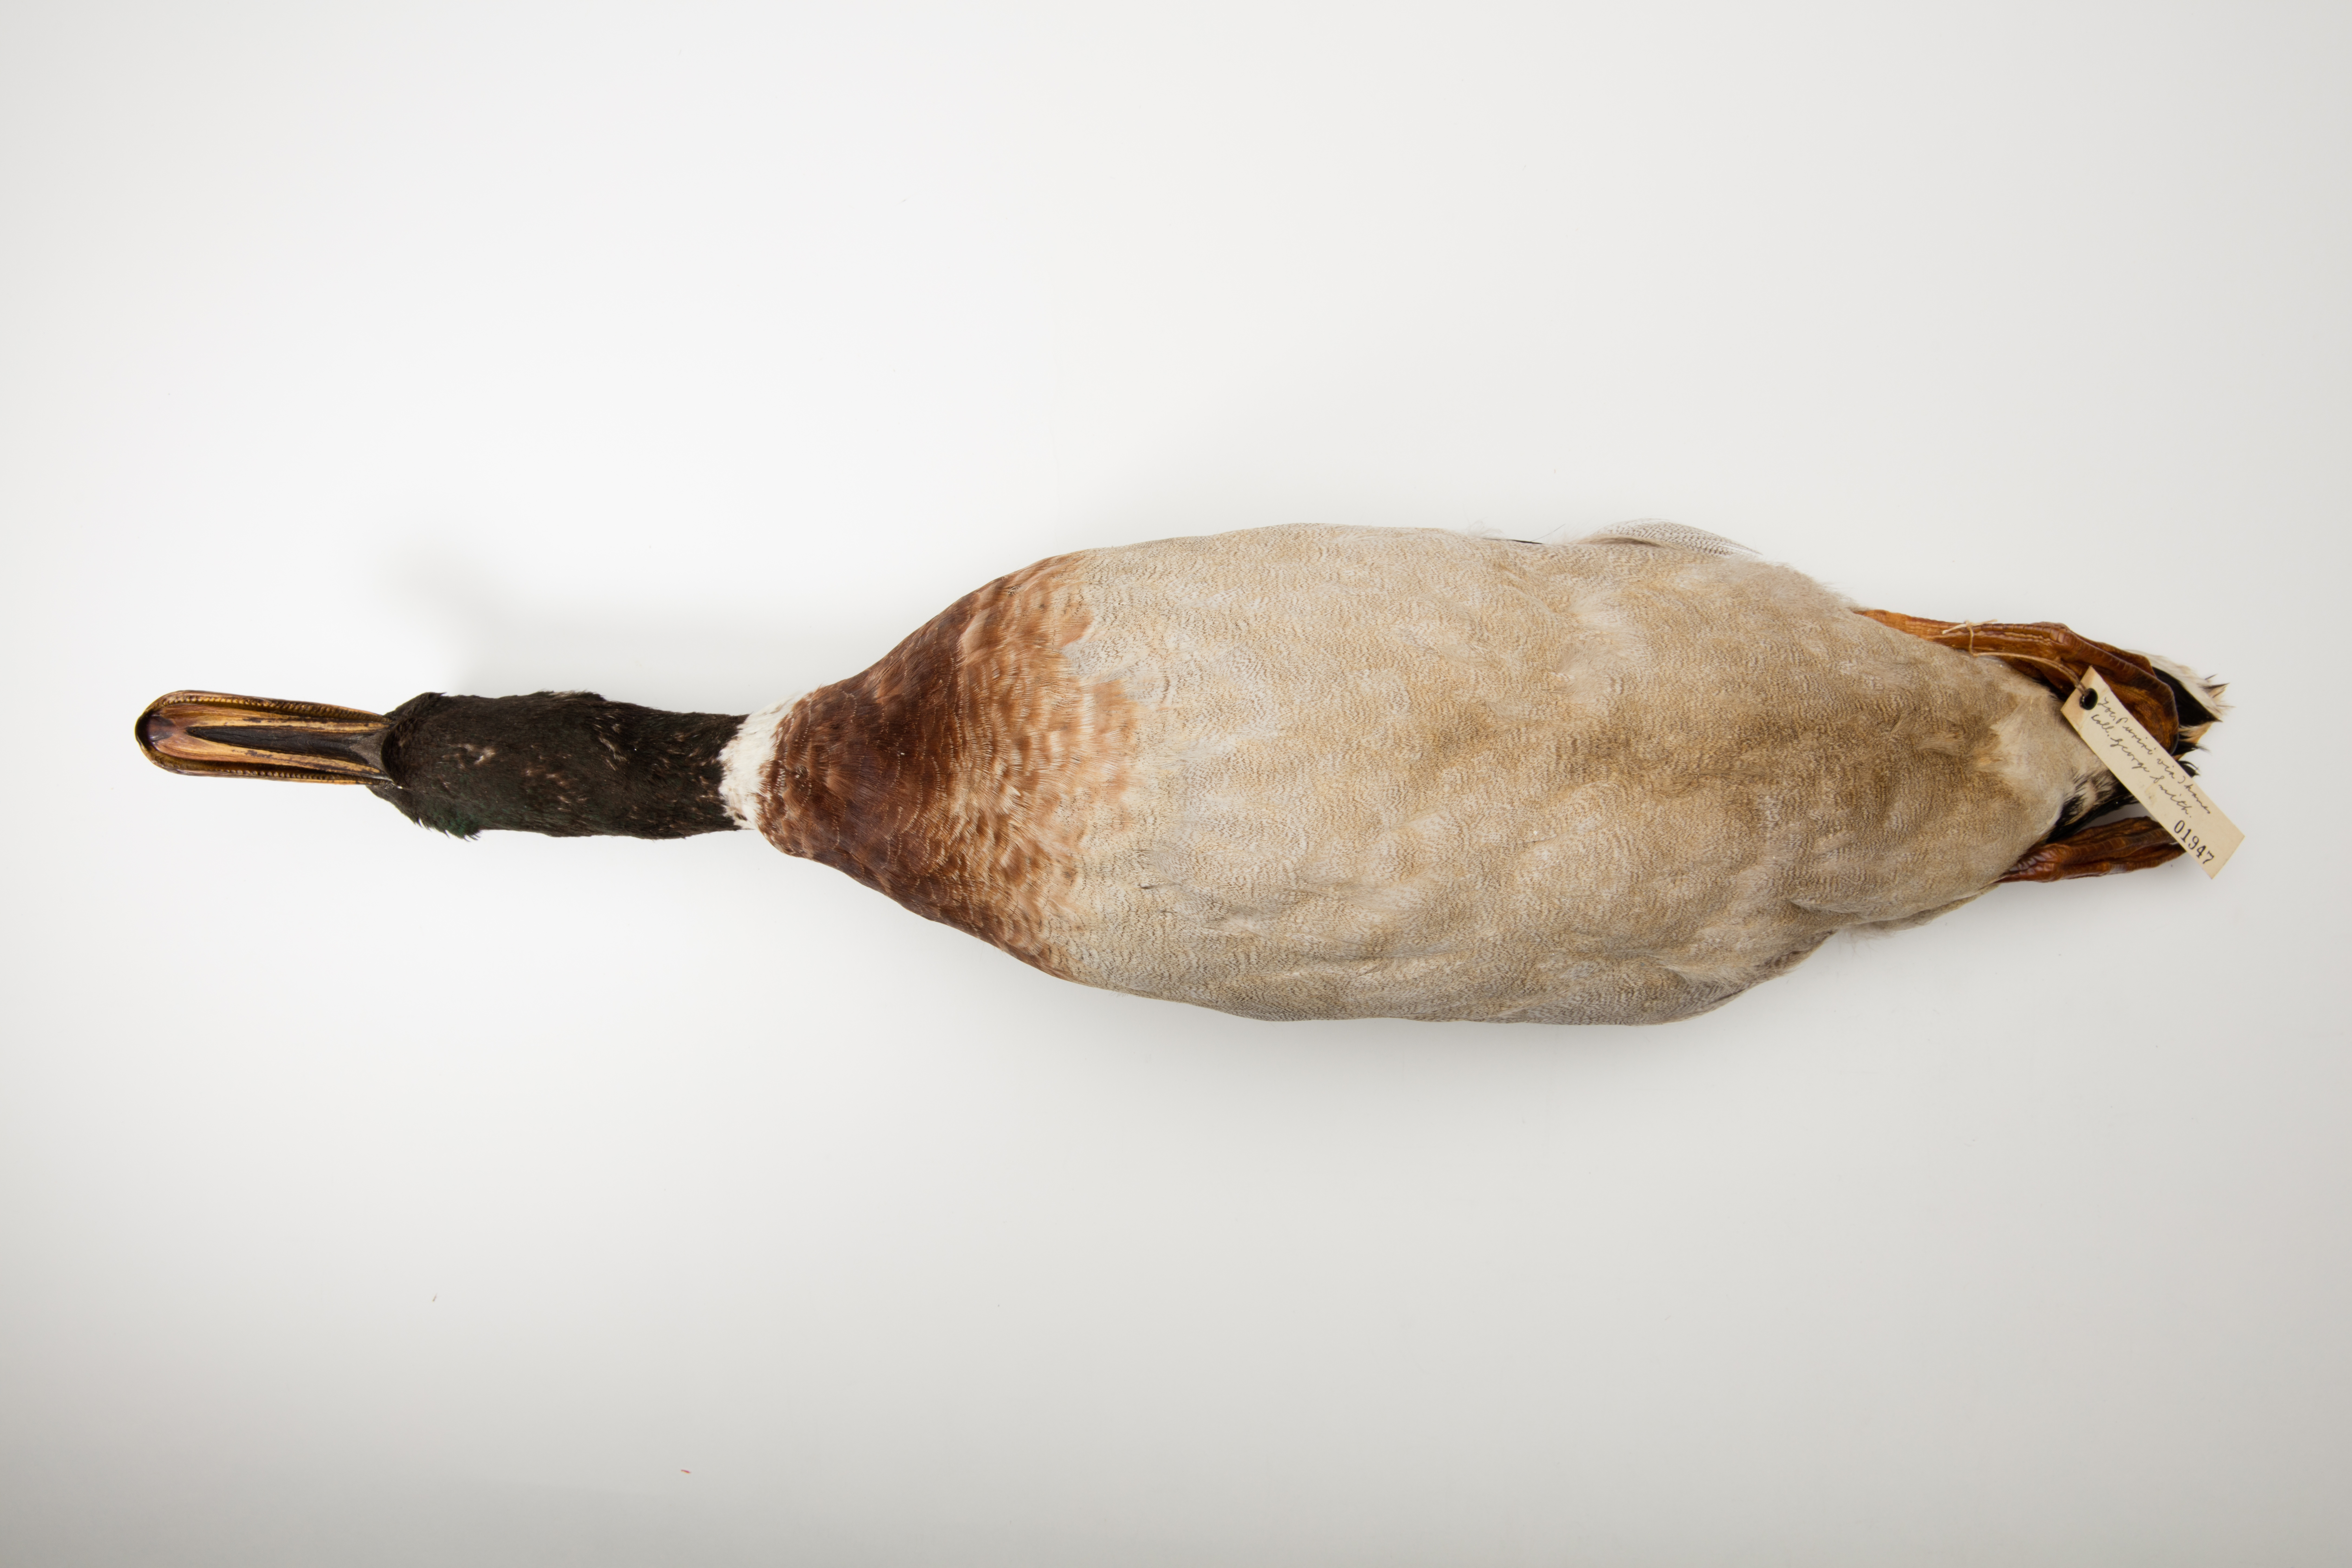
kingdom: Animalia
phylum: Chordata
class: Aves
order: Anseriformes
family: Anatidae
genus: Anas
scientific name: Anas platyrhynchos
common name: Mallard
